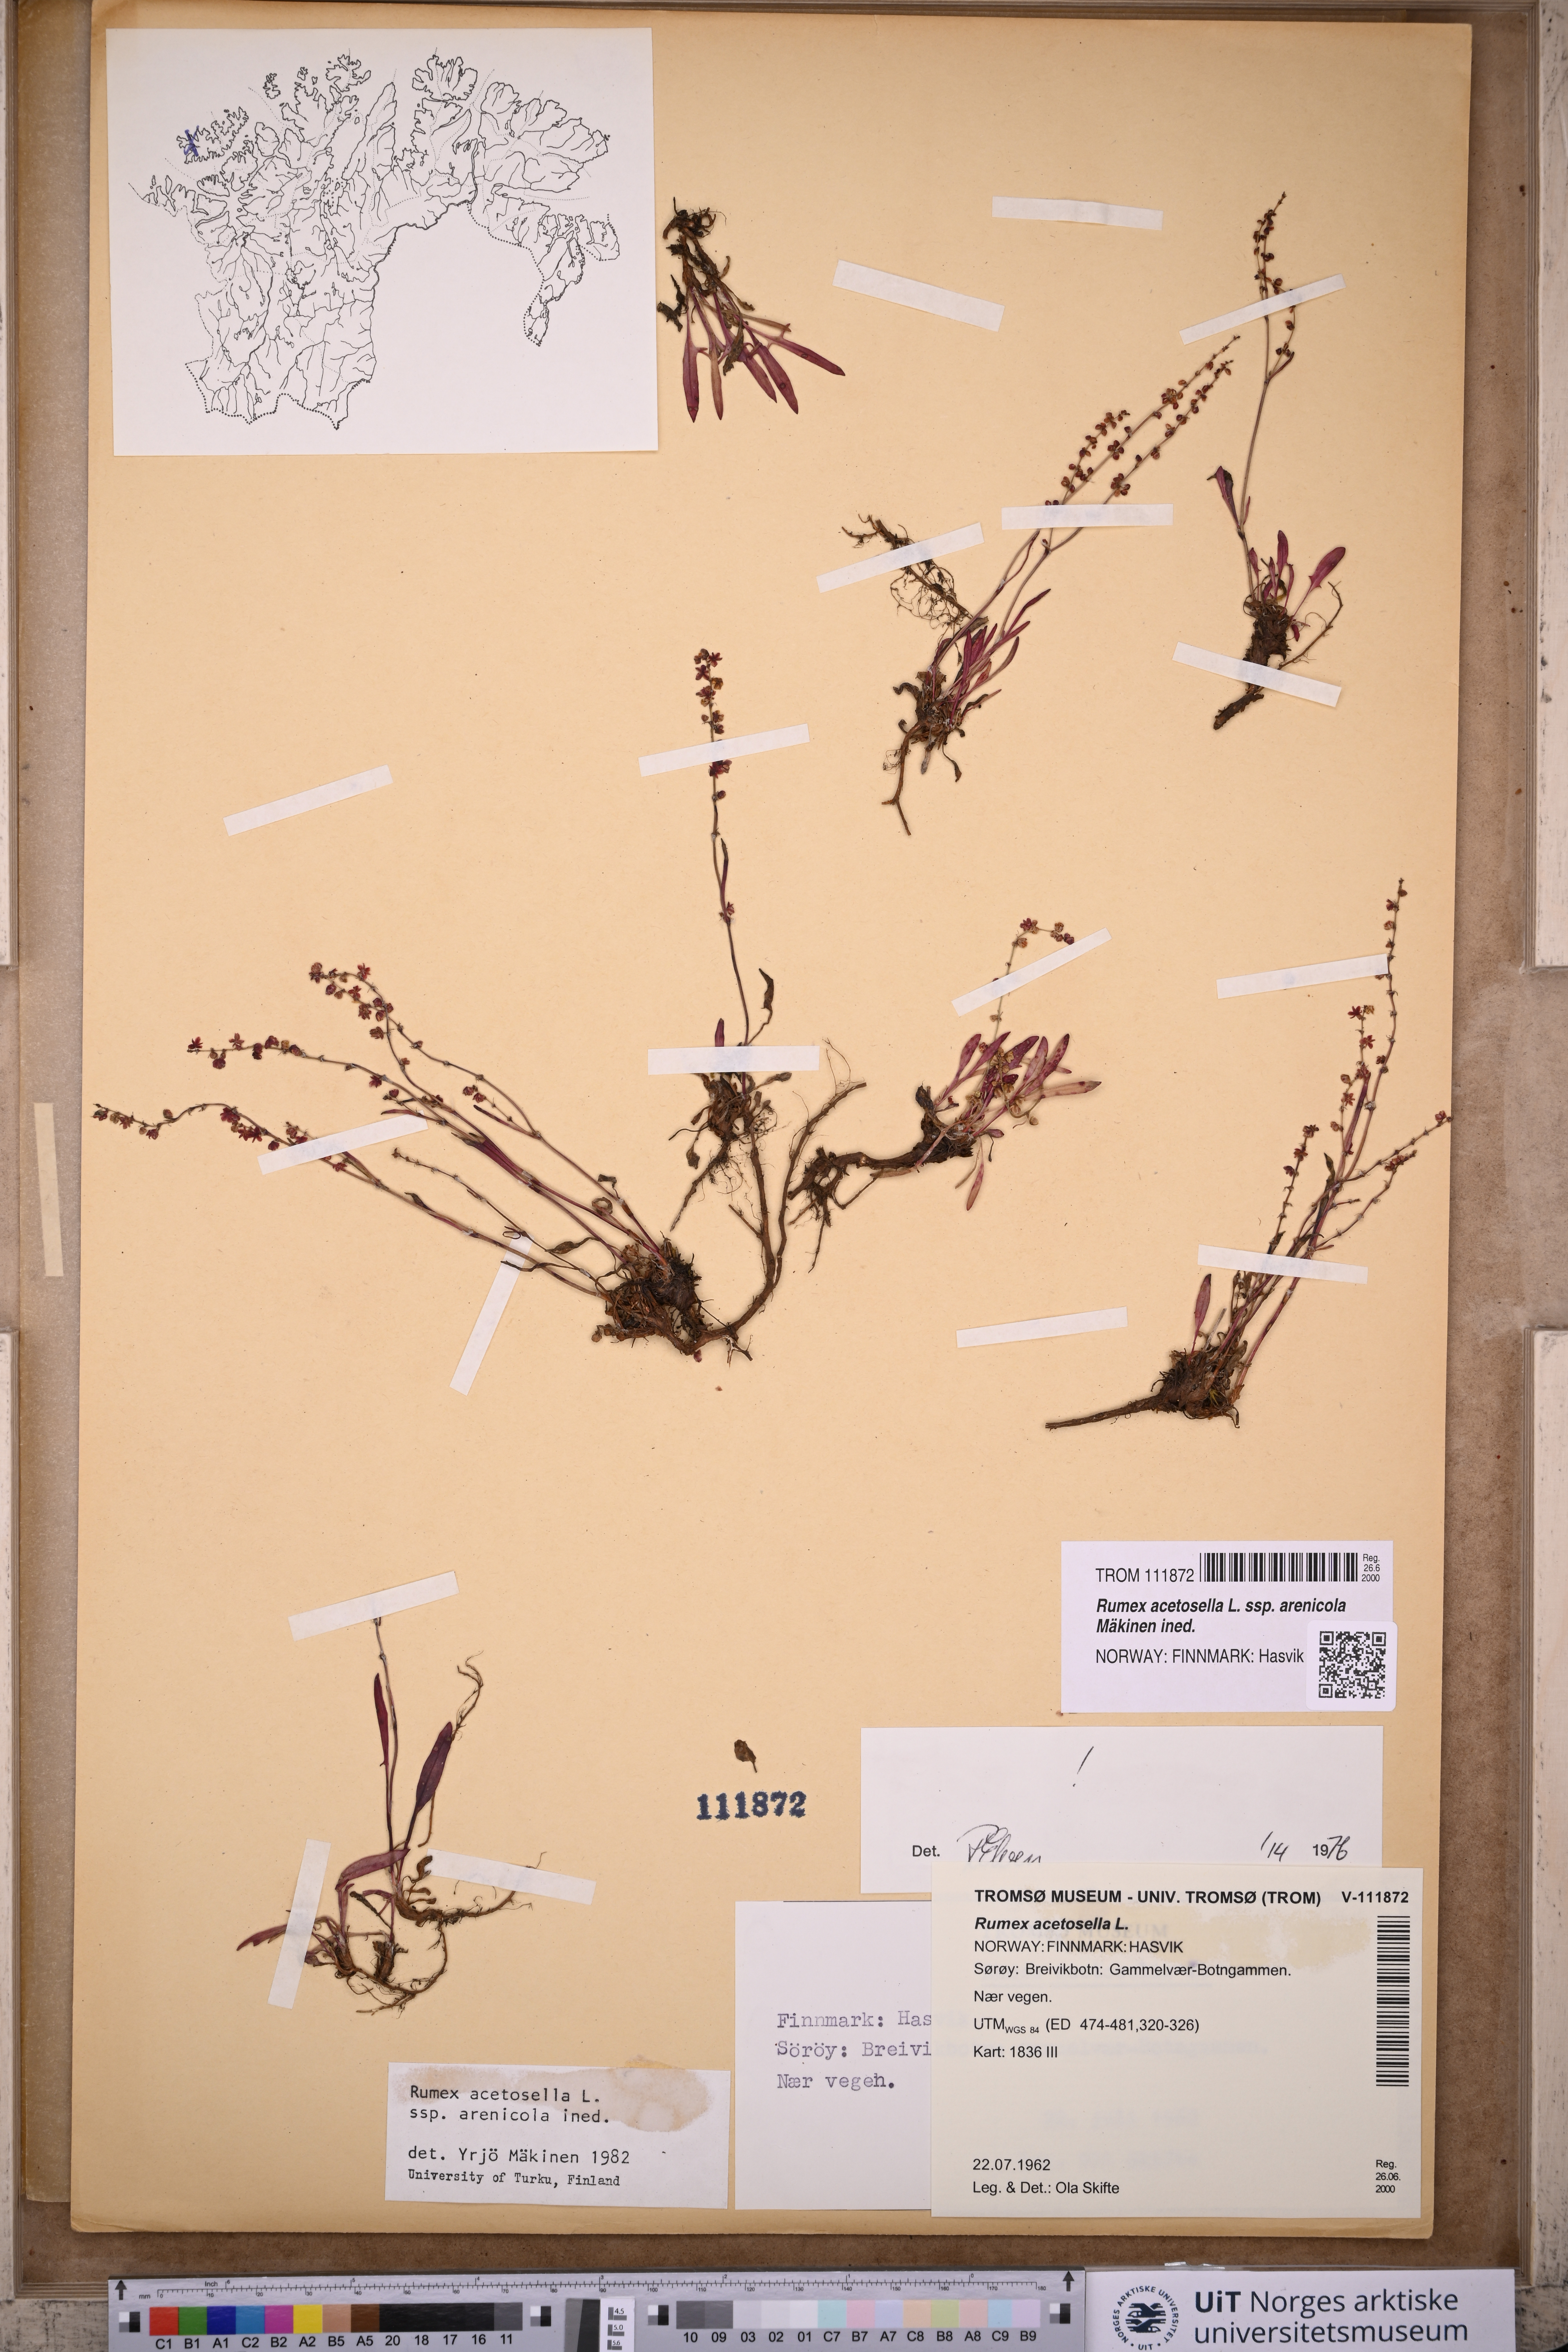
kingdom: Plantae
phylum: Tracheophyta
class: Magnoliopsida
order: Caryophyllales
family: Polygonaceae
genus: Rumex
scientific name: Rumex acetosella
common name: Common sheep sorrel
